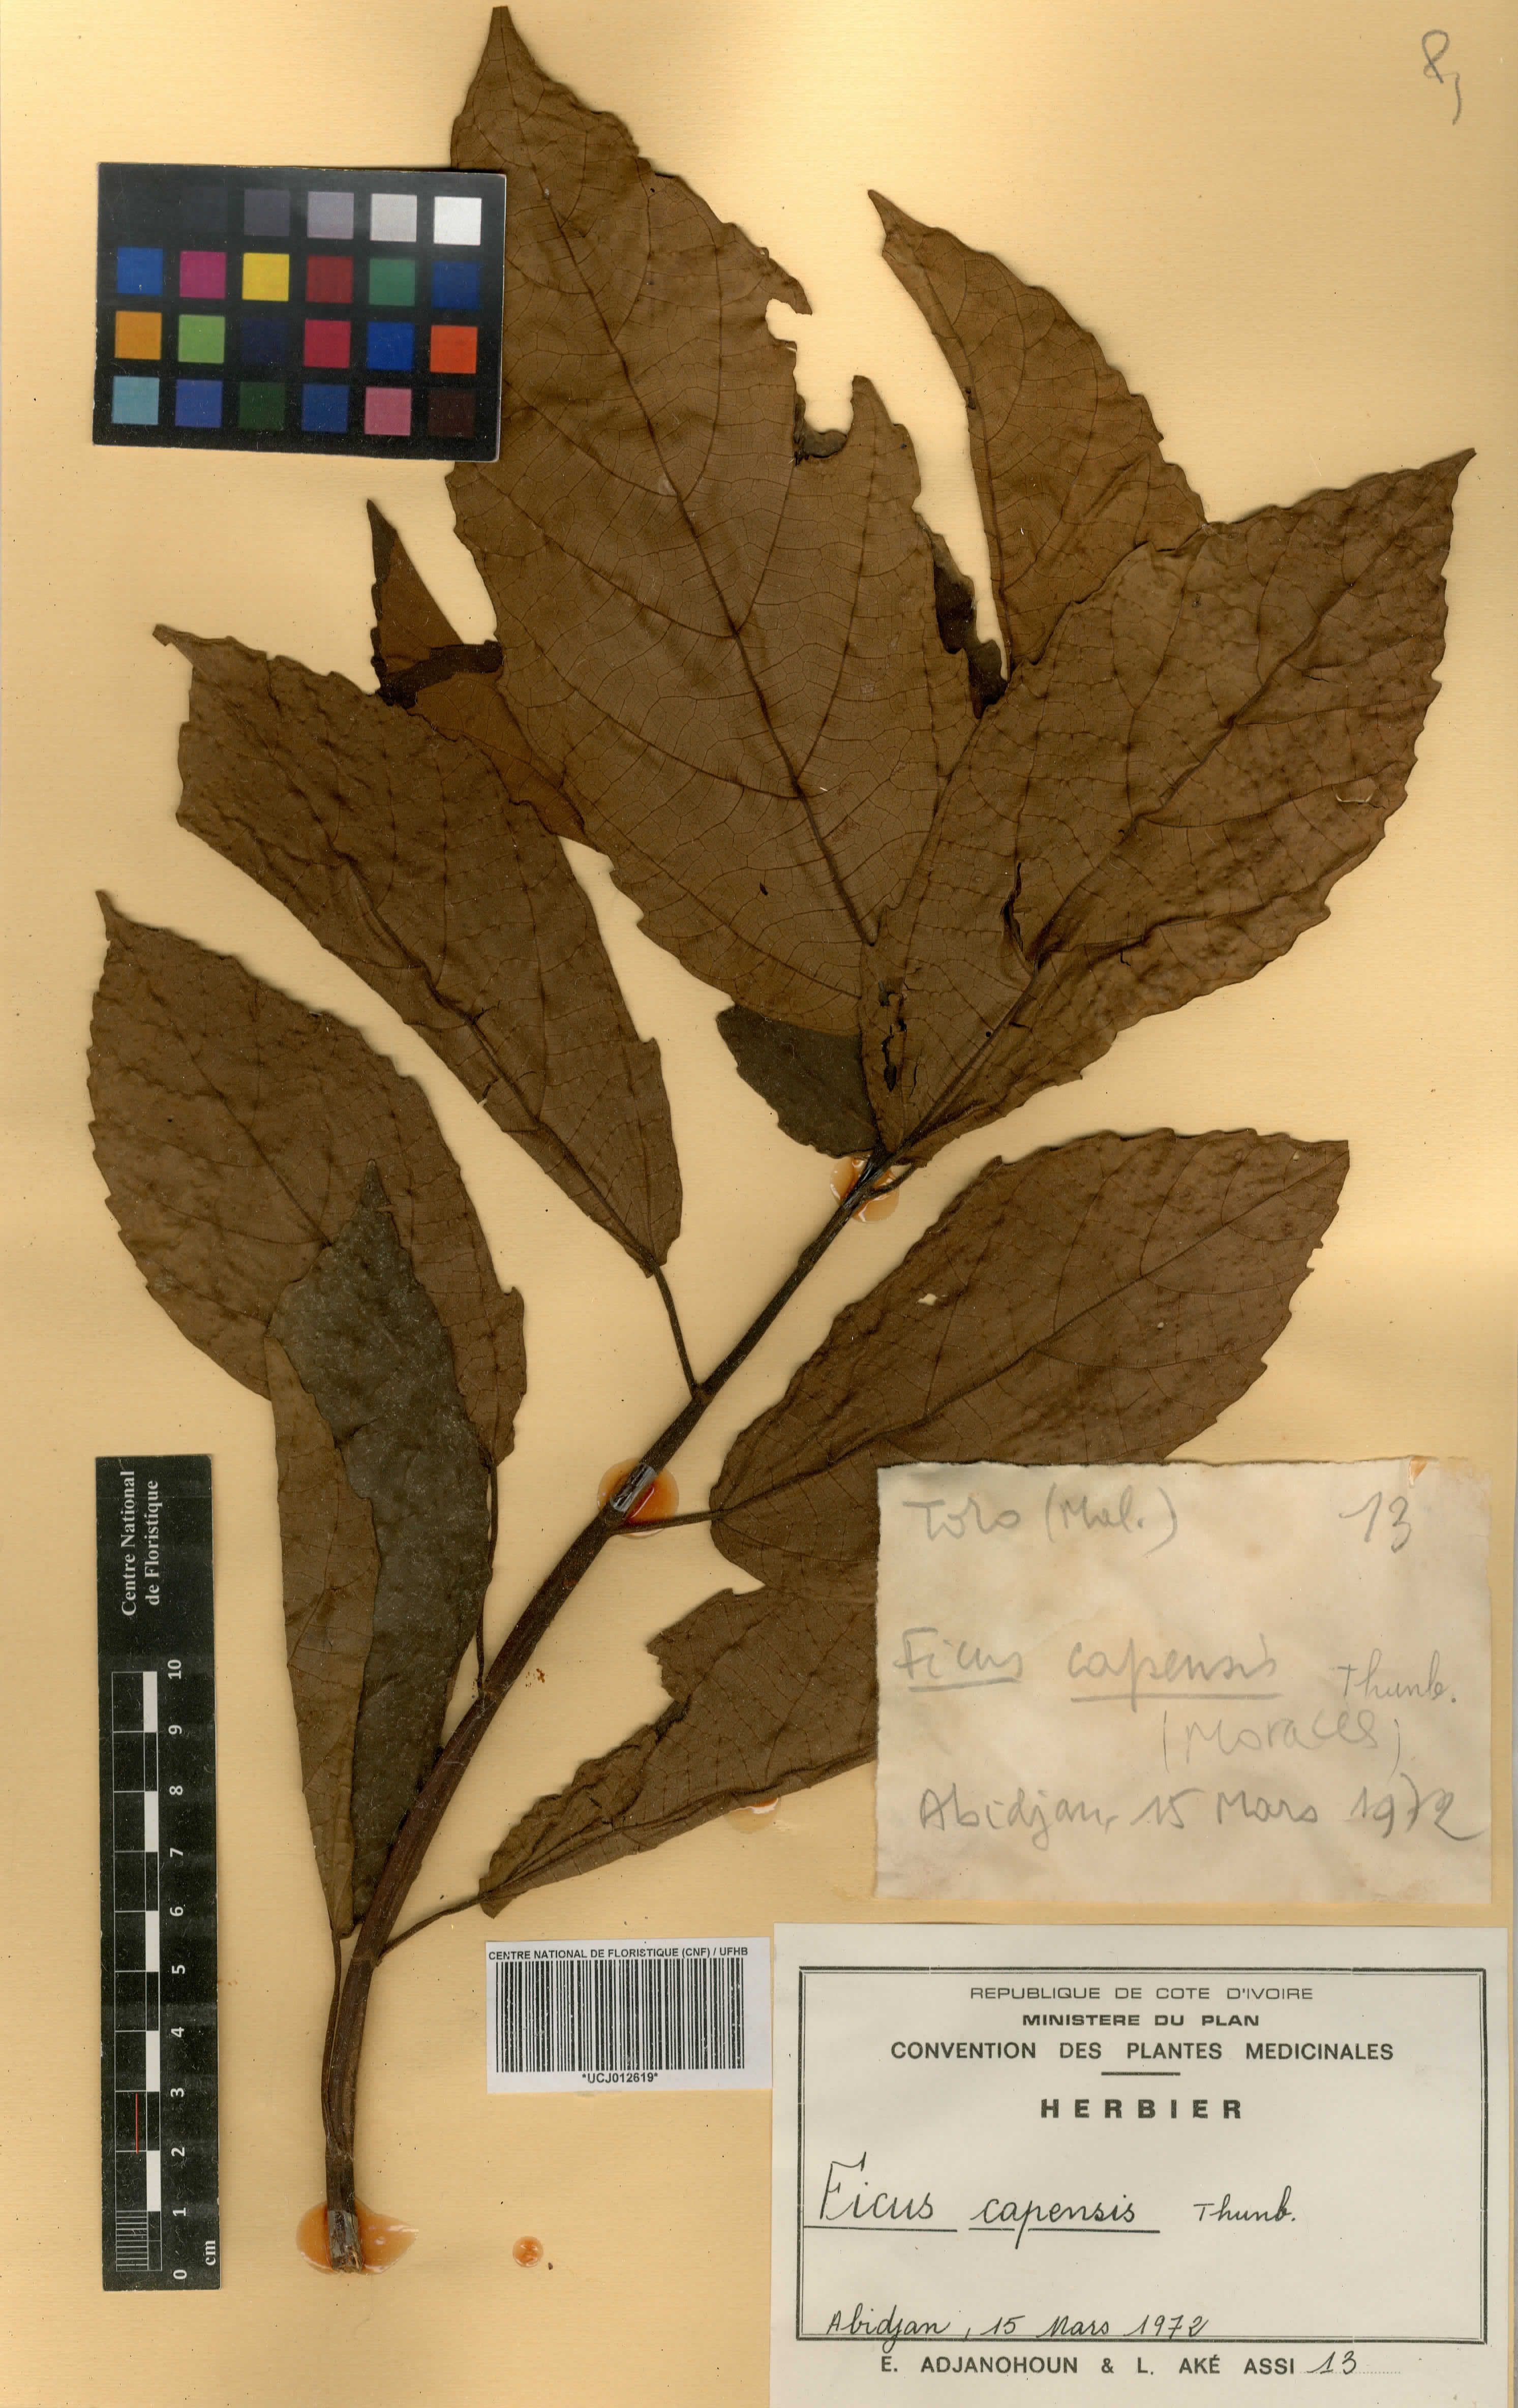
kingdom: Plantae
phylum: Tracheophyta
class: Magnoliopsida
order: Rosales
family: Moraceae
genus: Ficus
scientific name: Ficus sur
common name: Cape fig
